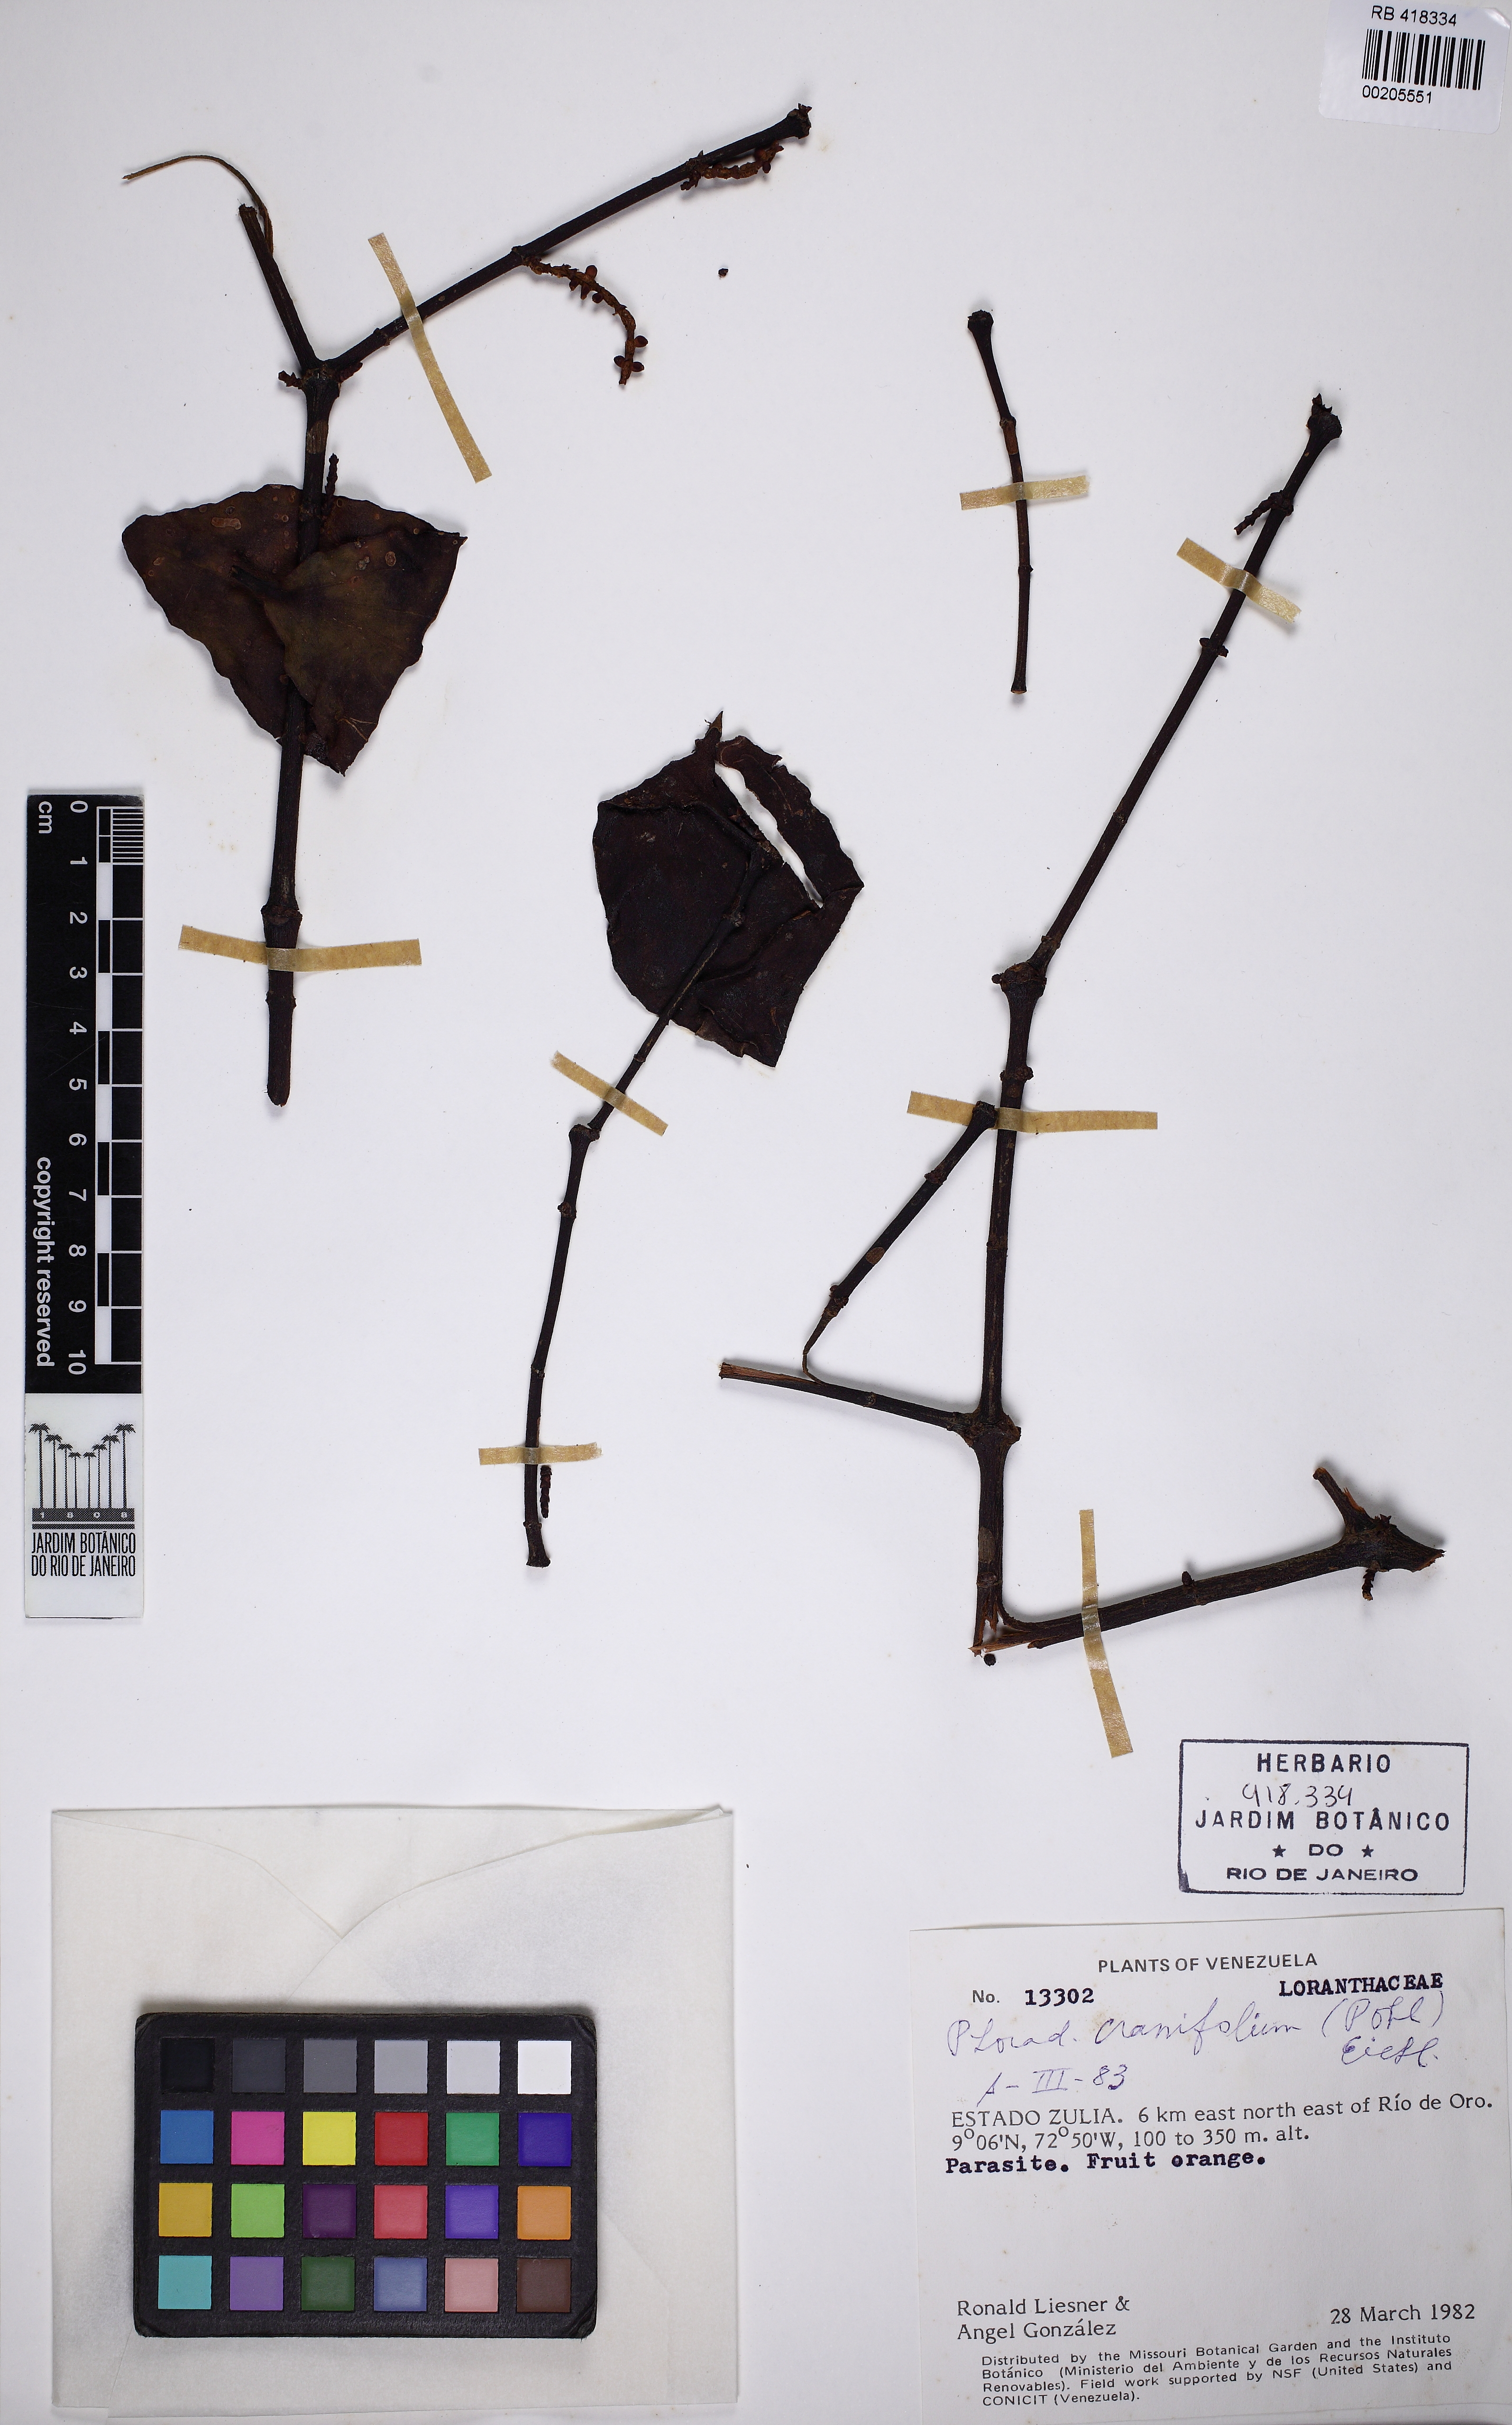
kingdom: Plantae
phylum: Tracheophyta
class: Magnoliopsida
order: Santalales
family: Viscaceae
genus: Phoradendron
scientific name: Phoradendron crassifolium
